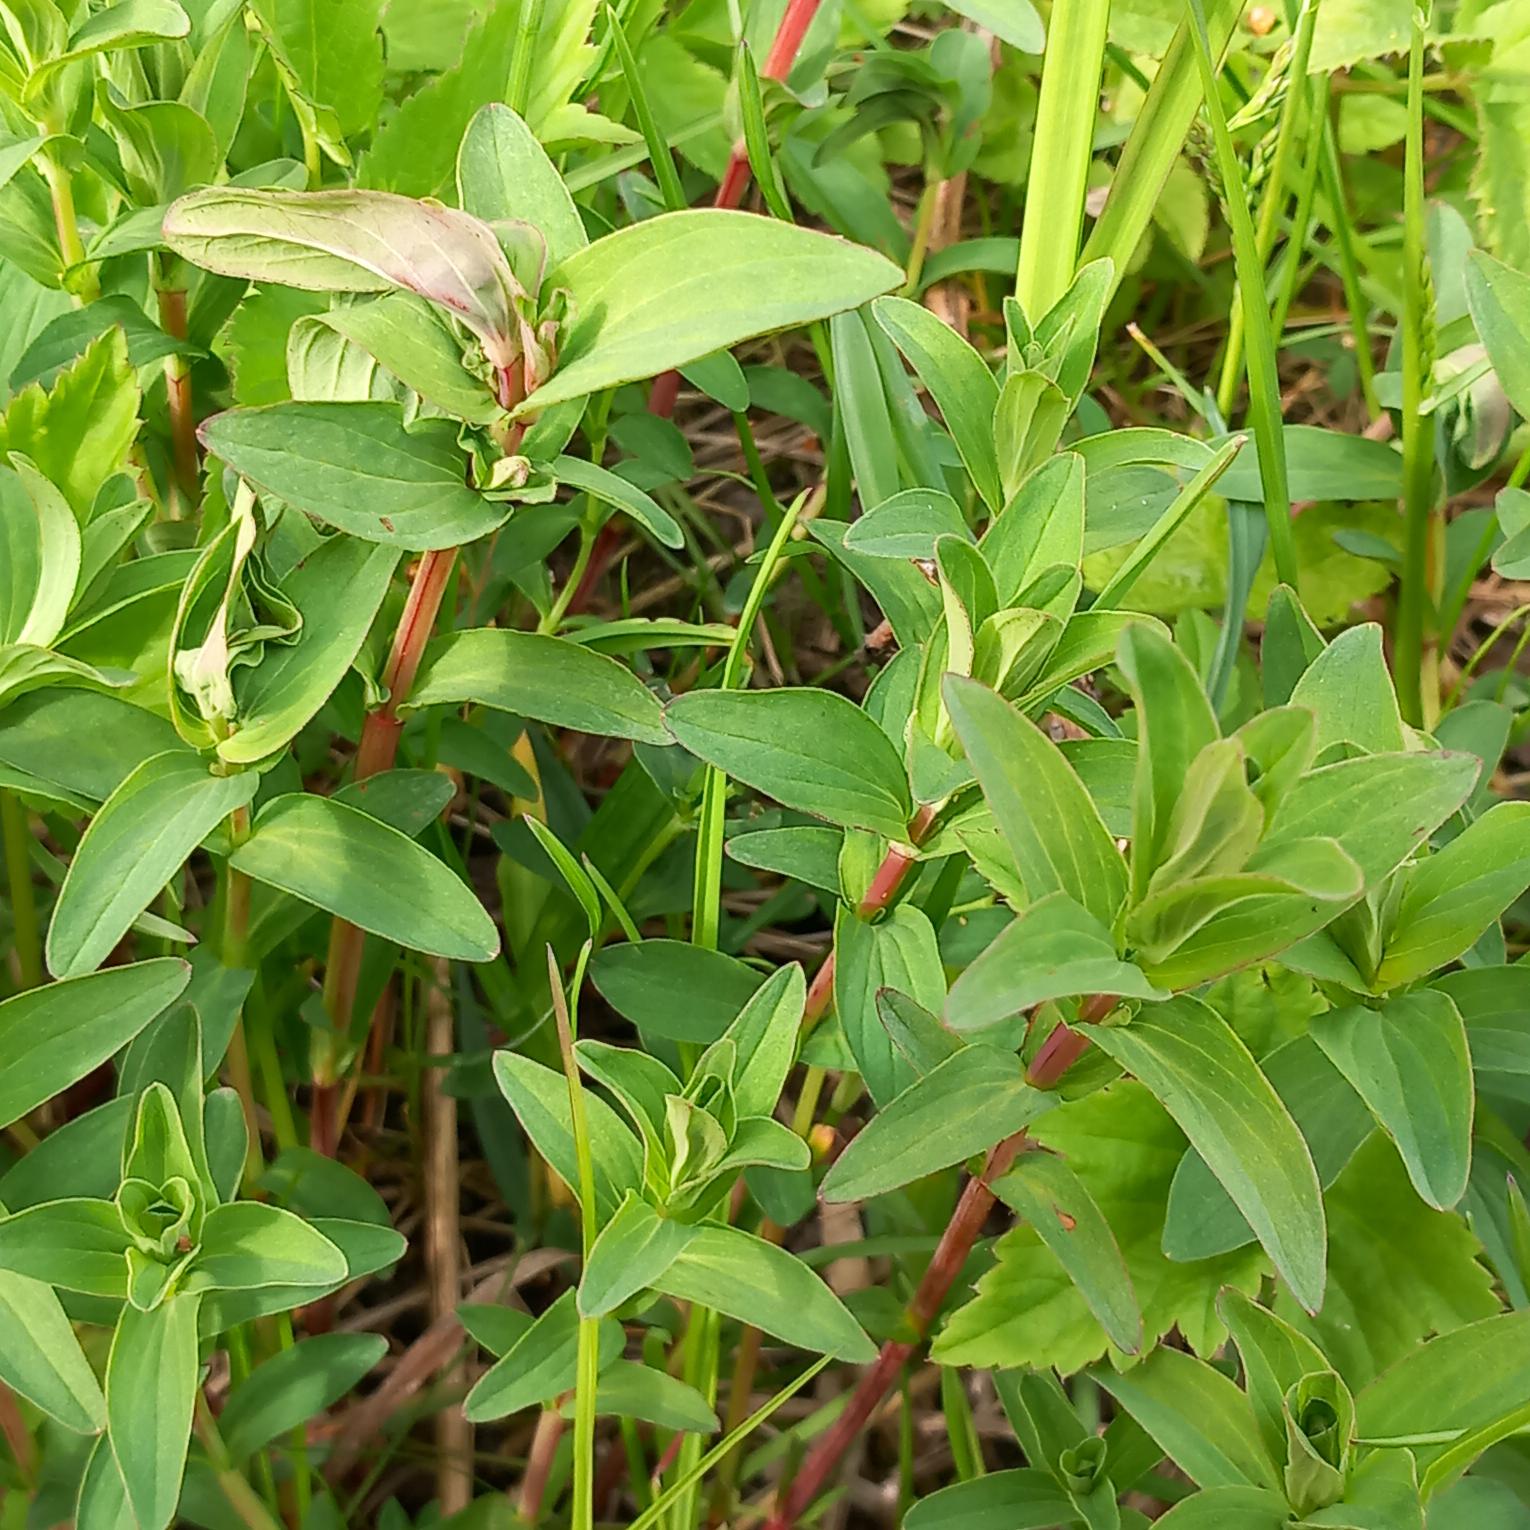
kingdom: Plantae
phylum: Tracheophyta
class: Magnoliopsida
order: Malpighiales
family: Hypericaceae
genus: Hypericum
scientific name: Hypericum perforatum
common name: Prikbladet perikon
